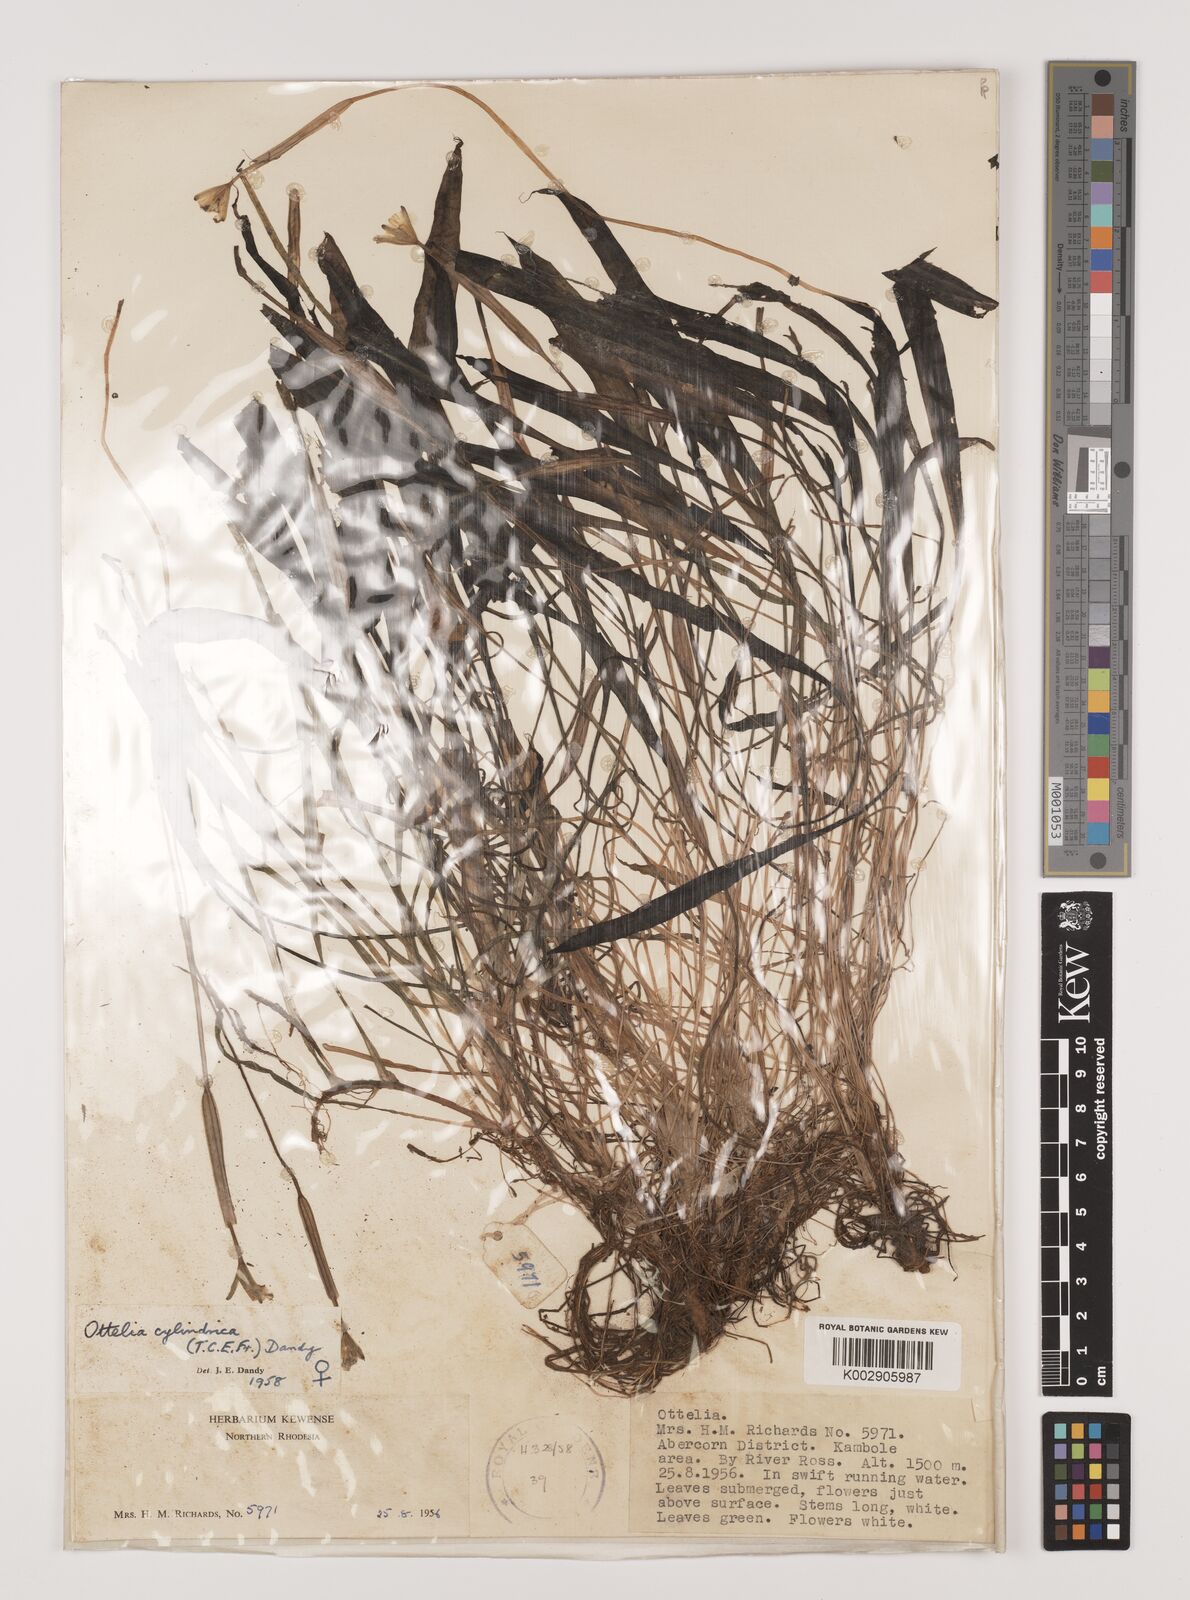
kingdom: Plantae
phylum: Tracheophyta
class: Liliopsida
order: Alismatales
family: Hydrocharitaceae
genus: Ottelia
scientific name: Ottelia cylindrica
